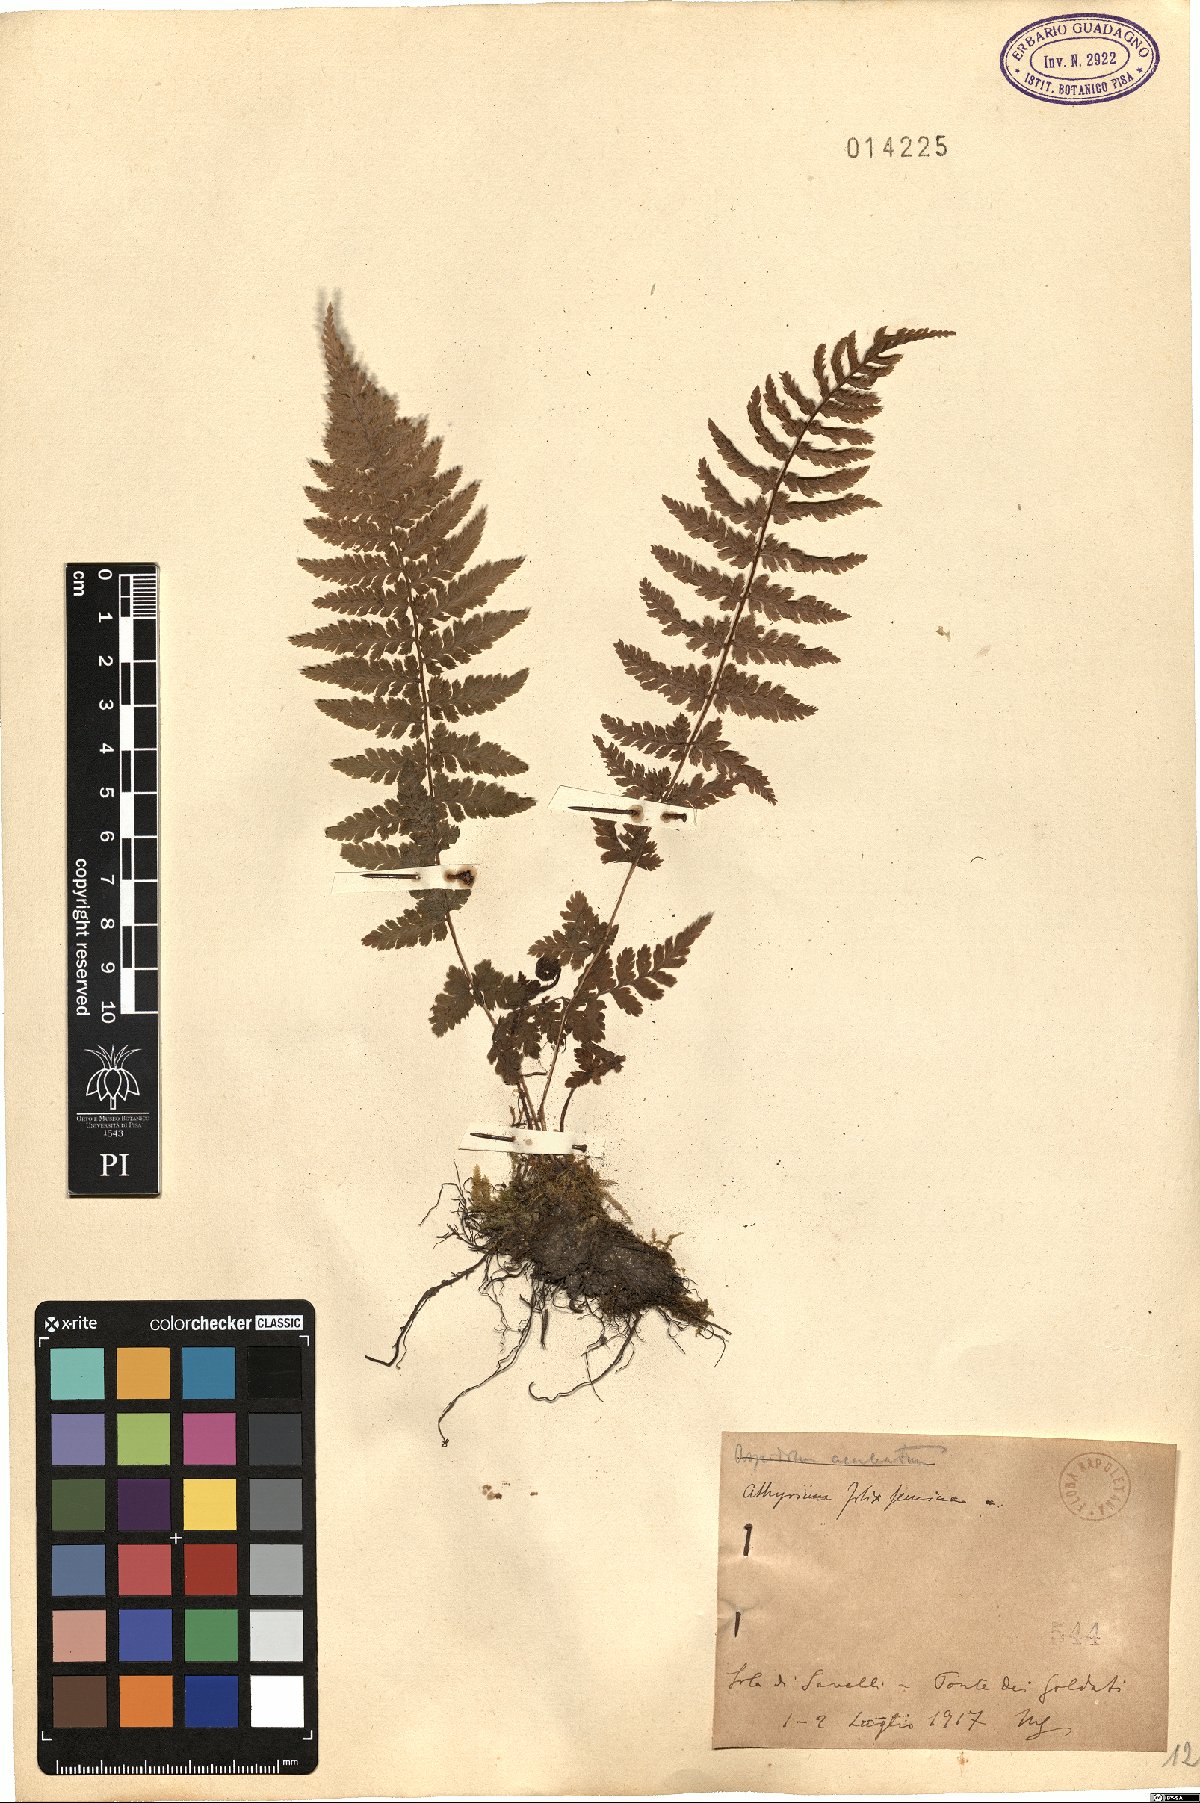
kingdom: Plantae
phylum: Tracheophyta
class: Polypodiopsida
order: Polypodiales
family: Athyriaceae
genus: Athyrium
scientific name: Athyrium filix-femina
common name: Lady fern
